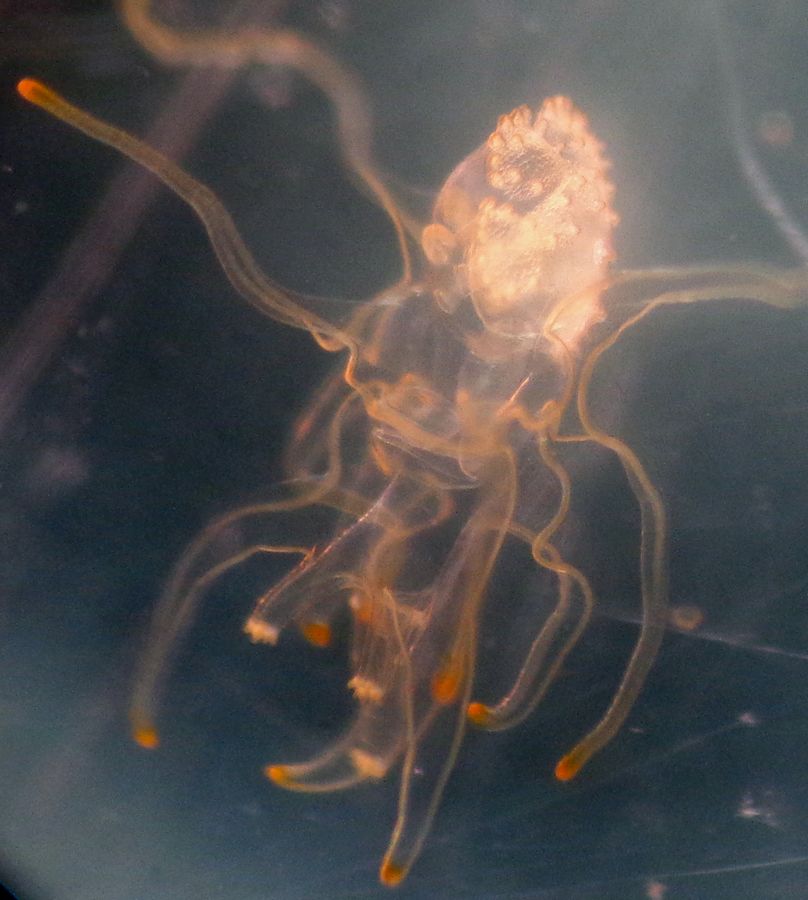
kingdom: Animalia
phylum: Echinodermata
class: Asteroidea
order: Forcipulatida
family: Asteriidae
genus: Asterias
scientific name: Asterias rubens
